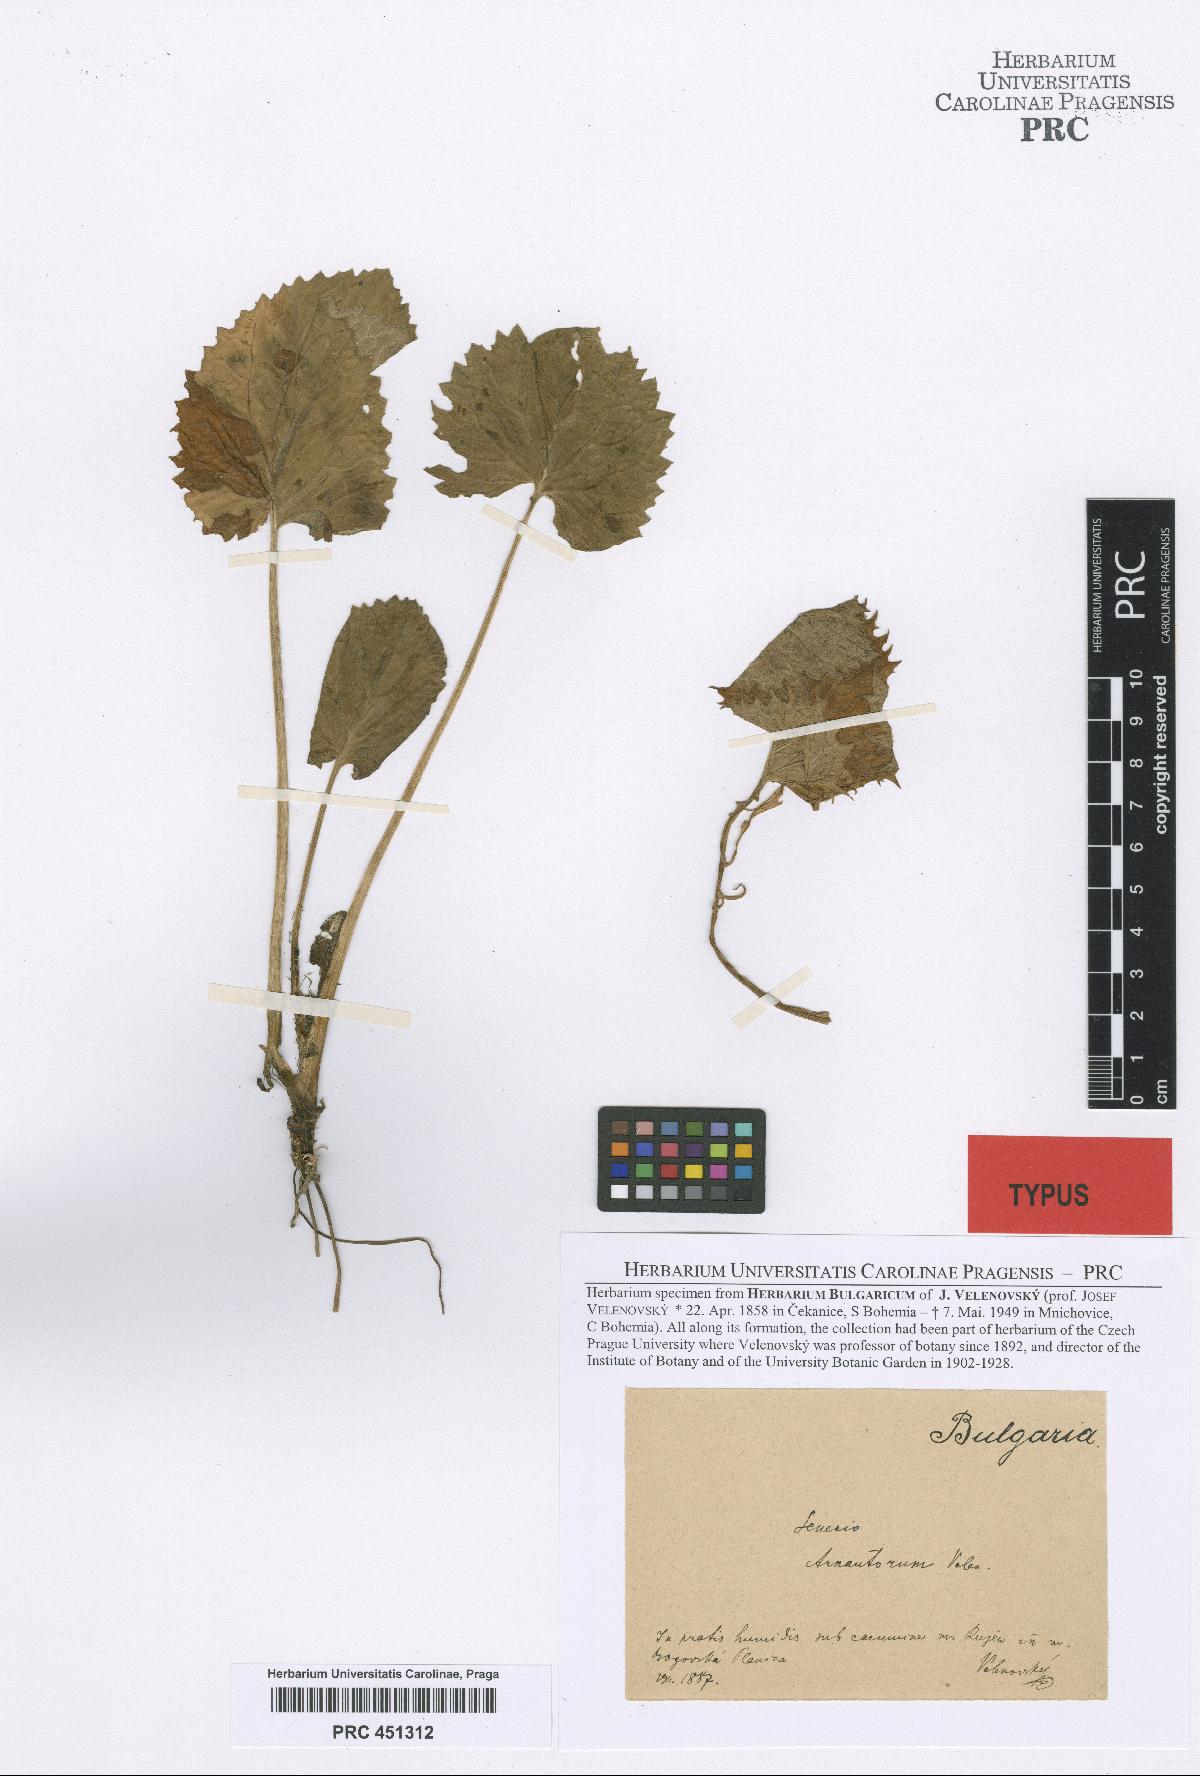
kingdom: Plantae
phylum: Tracheophyta
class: Magnoliopsida
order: Asterales
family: Asteraceae
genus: Jacobaea
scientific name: Jacobaea subalpina
